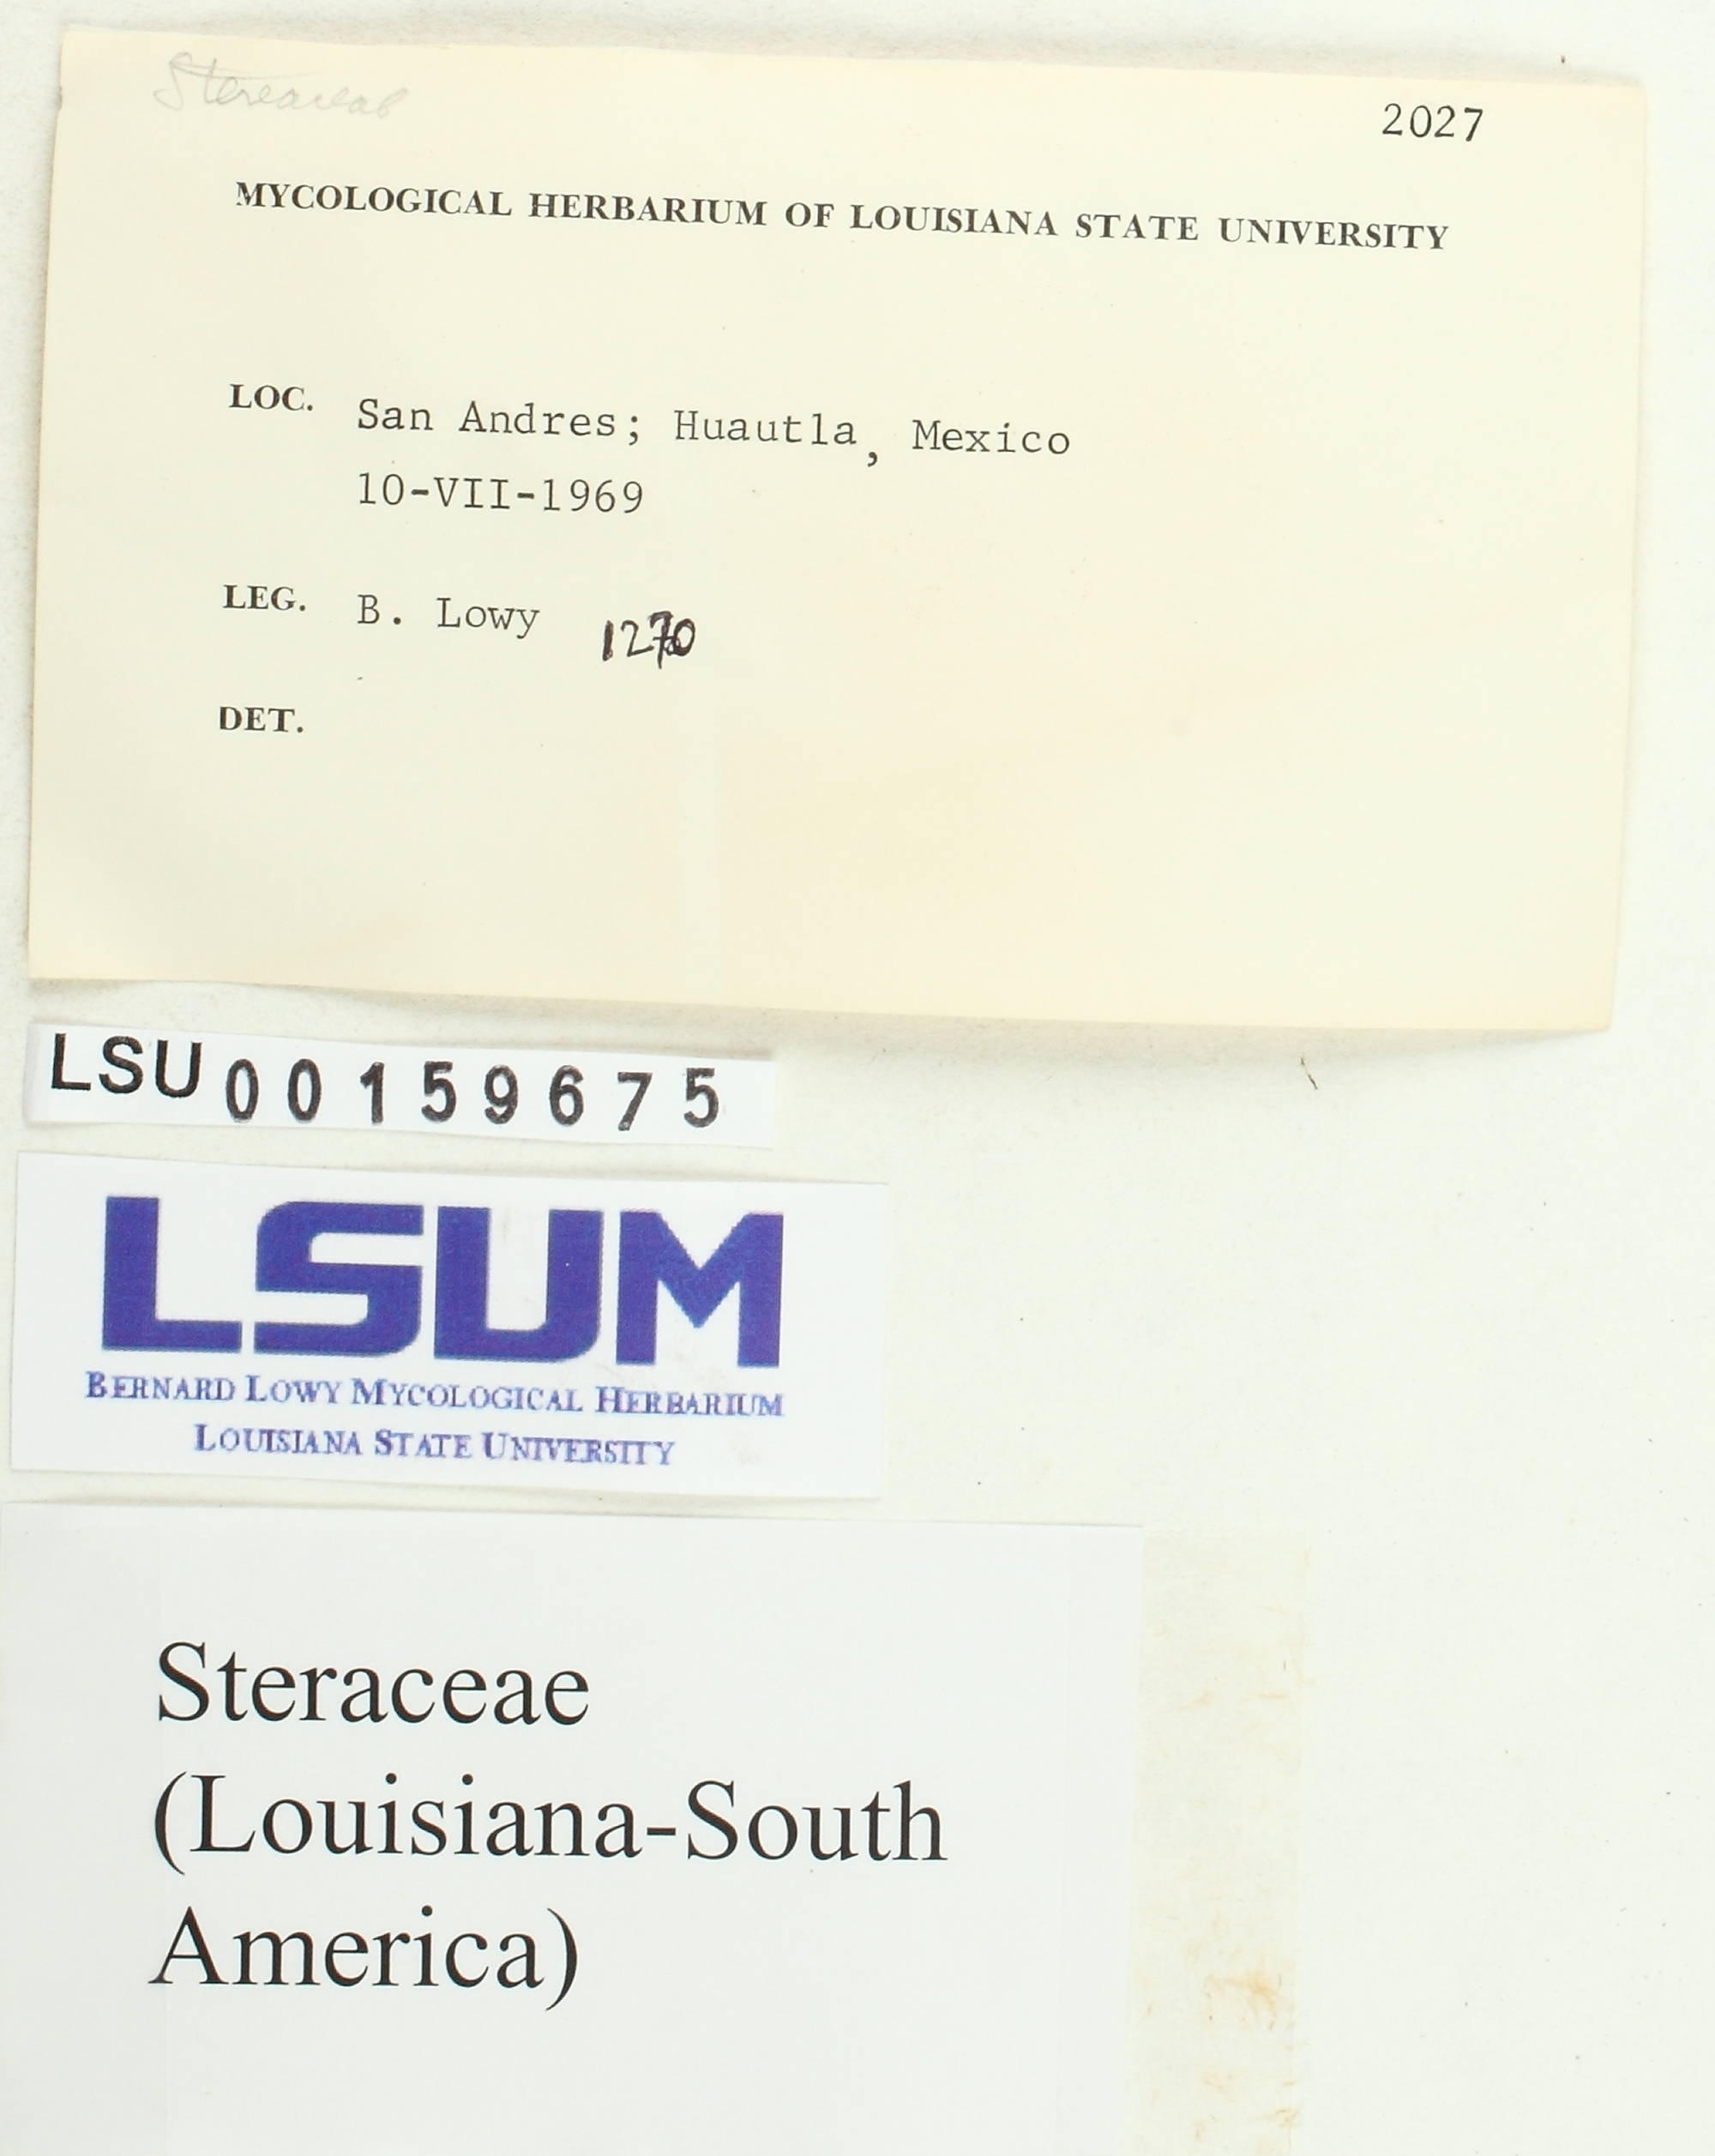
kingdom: Fungi
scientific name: Fungi
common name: Fungi
